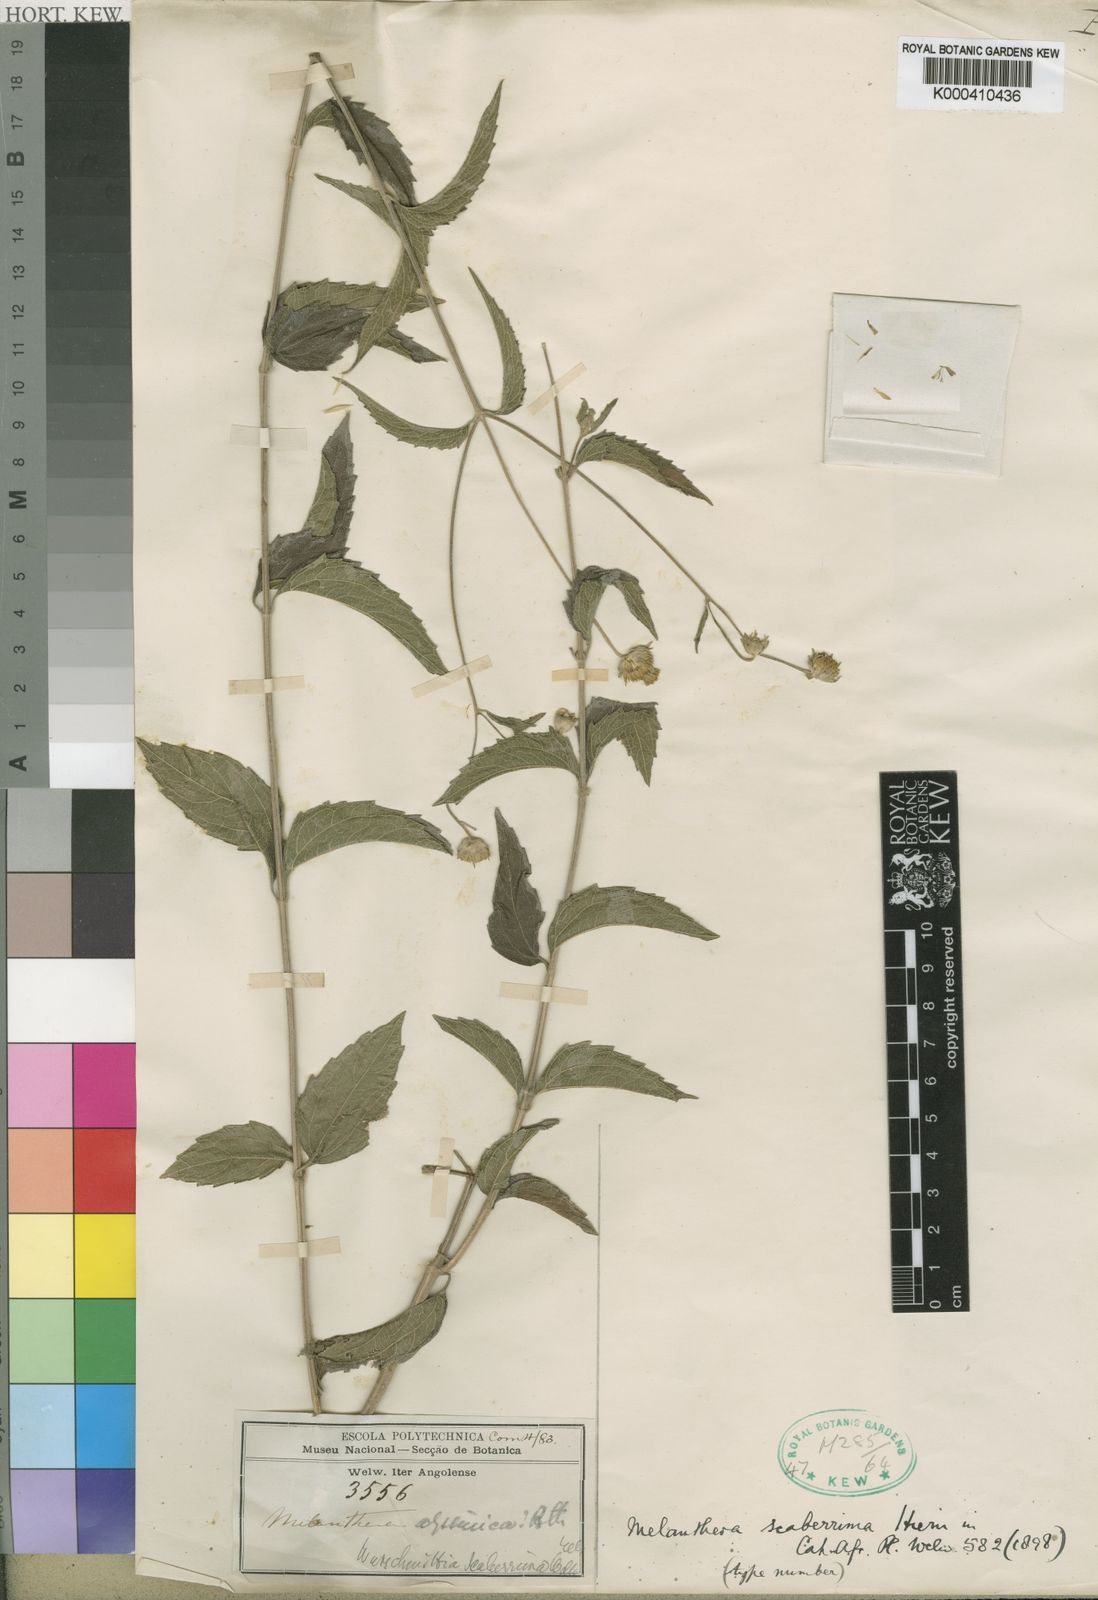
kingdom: Plantae
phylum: Tracheophyta
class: Magnoliopsida
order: Asterales
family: Asteraceae
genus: Lipotriche
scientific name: Lipotriche scaberrima
